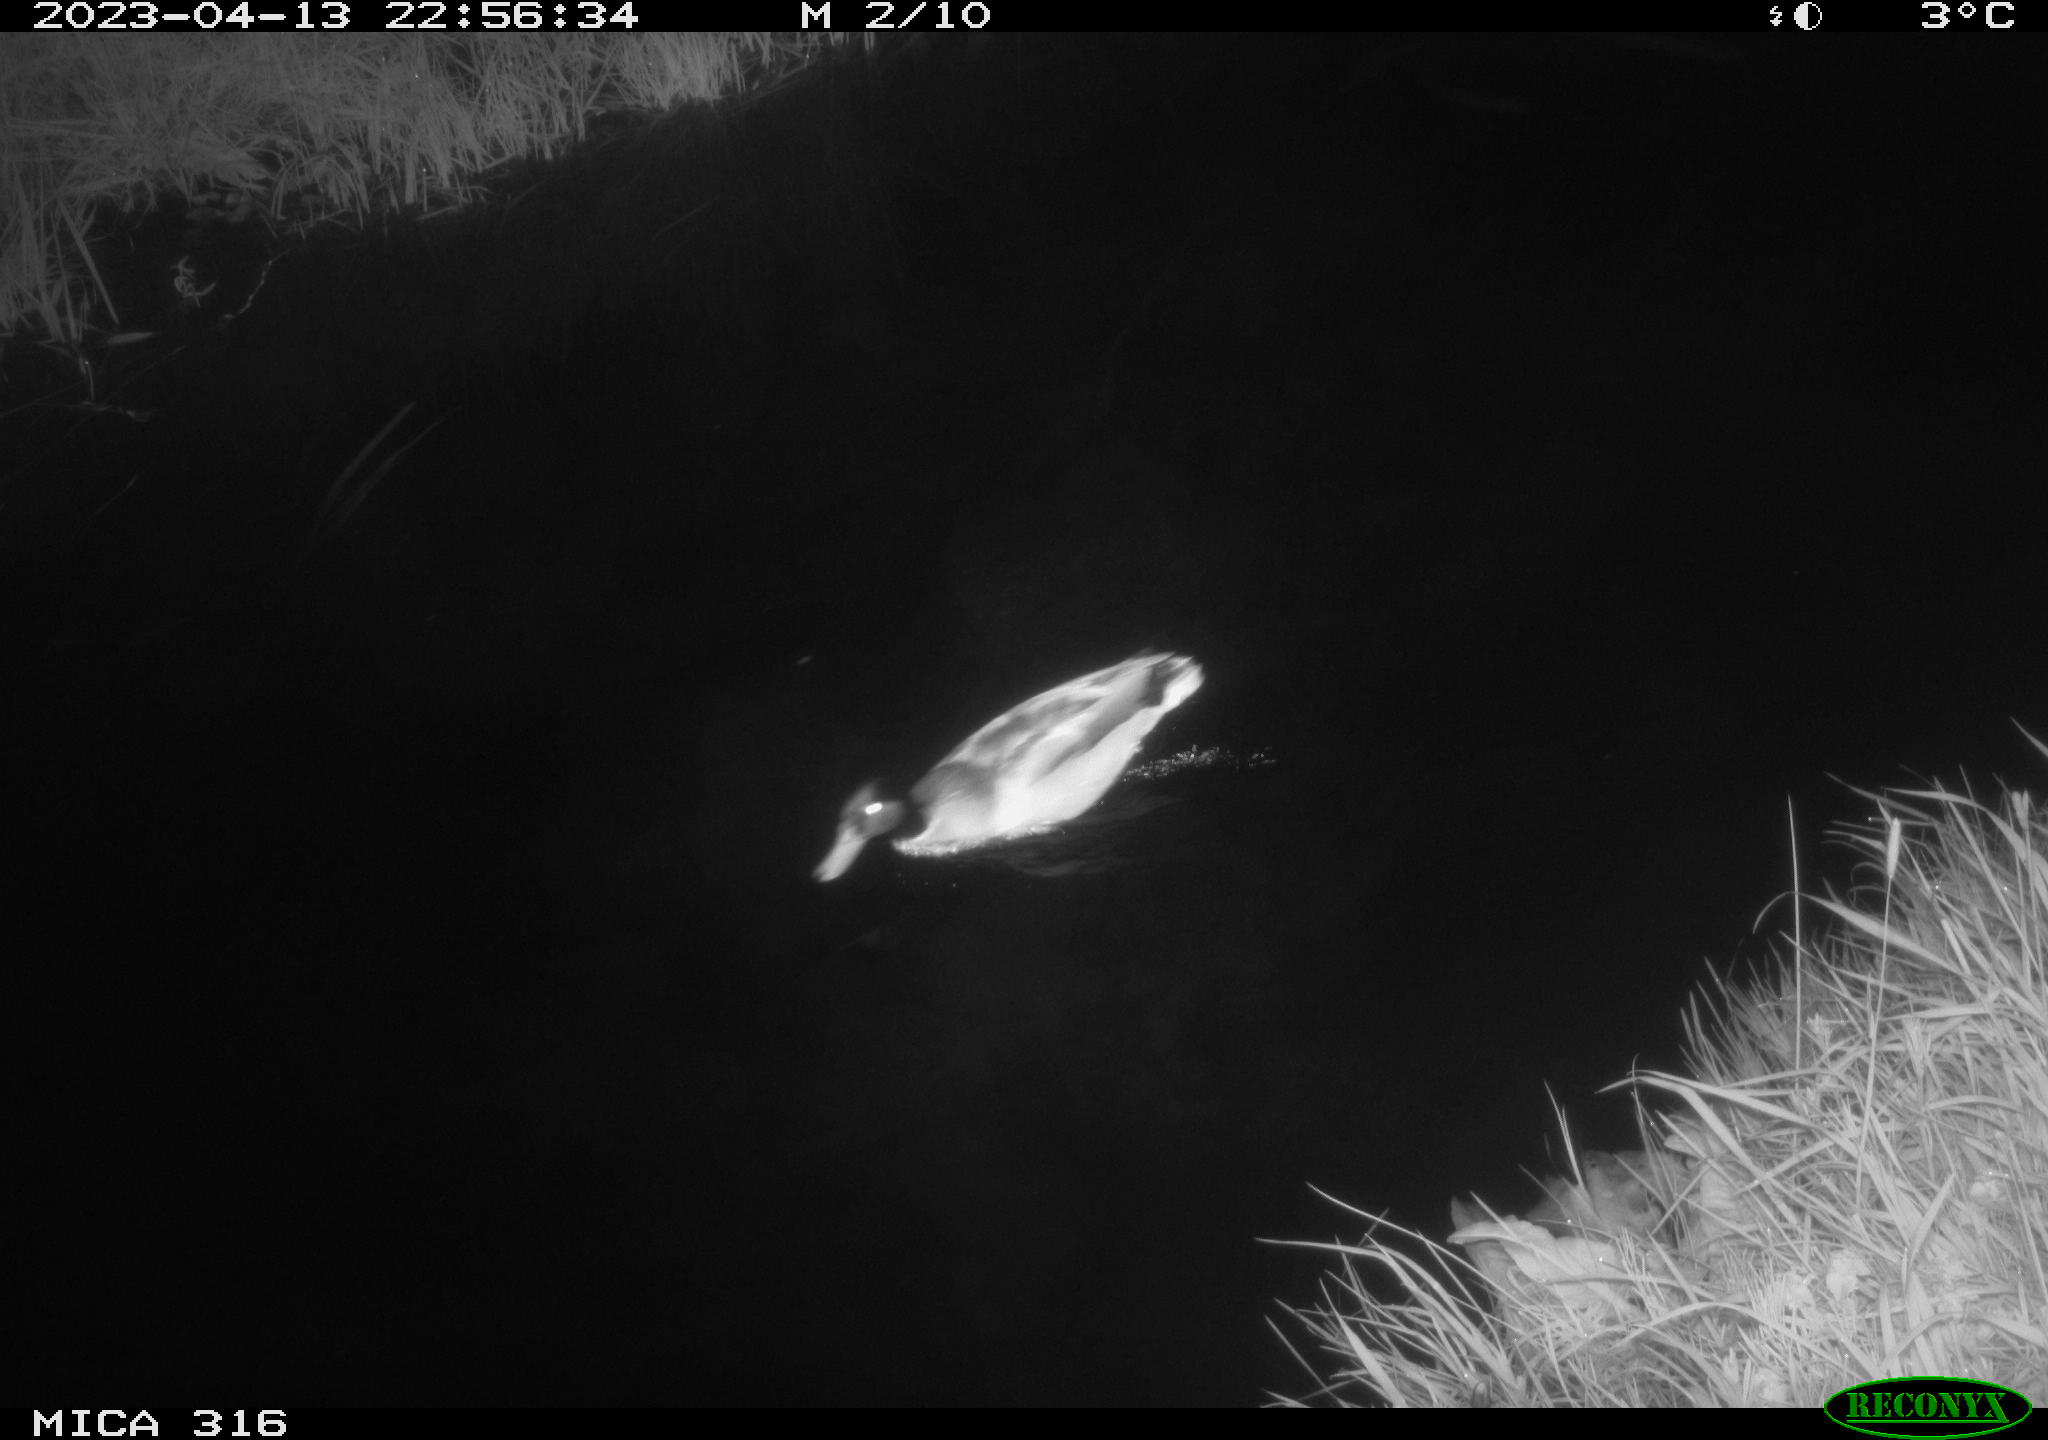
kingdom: Animalia
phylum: Chordata
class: Aves
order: Anseriformes
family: Anatidae
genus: Anas
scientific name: Anas
